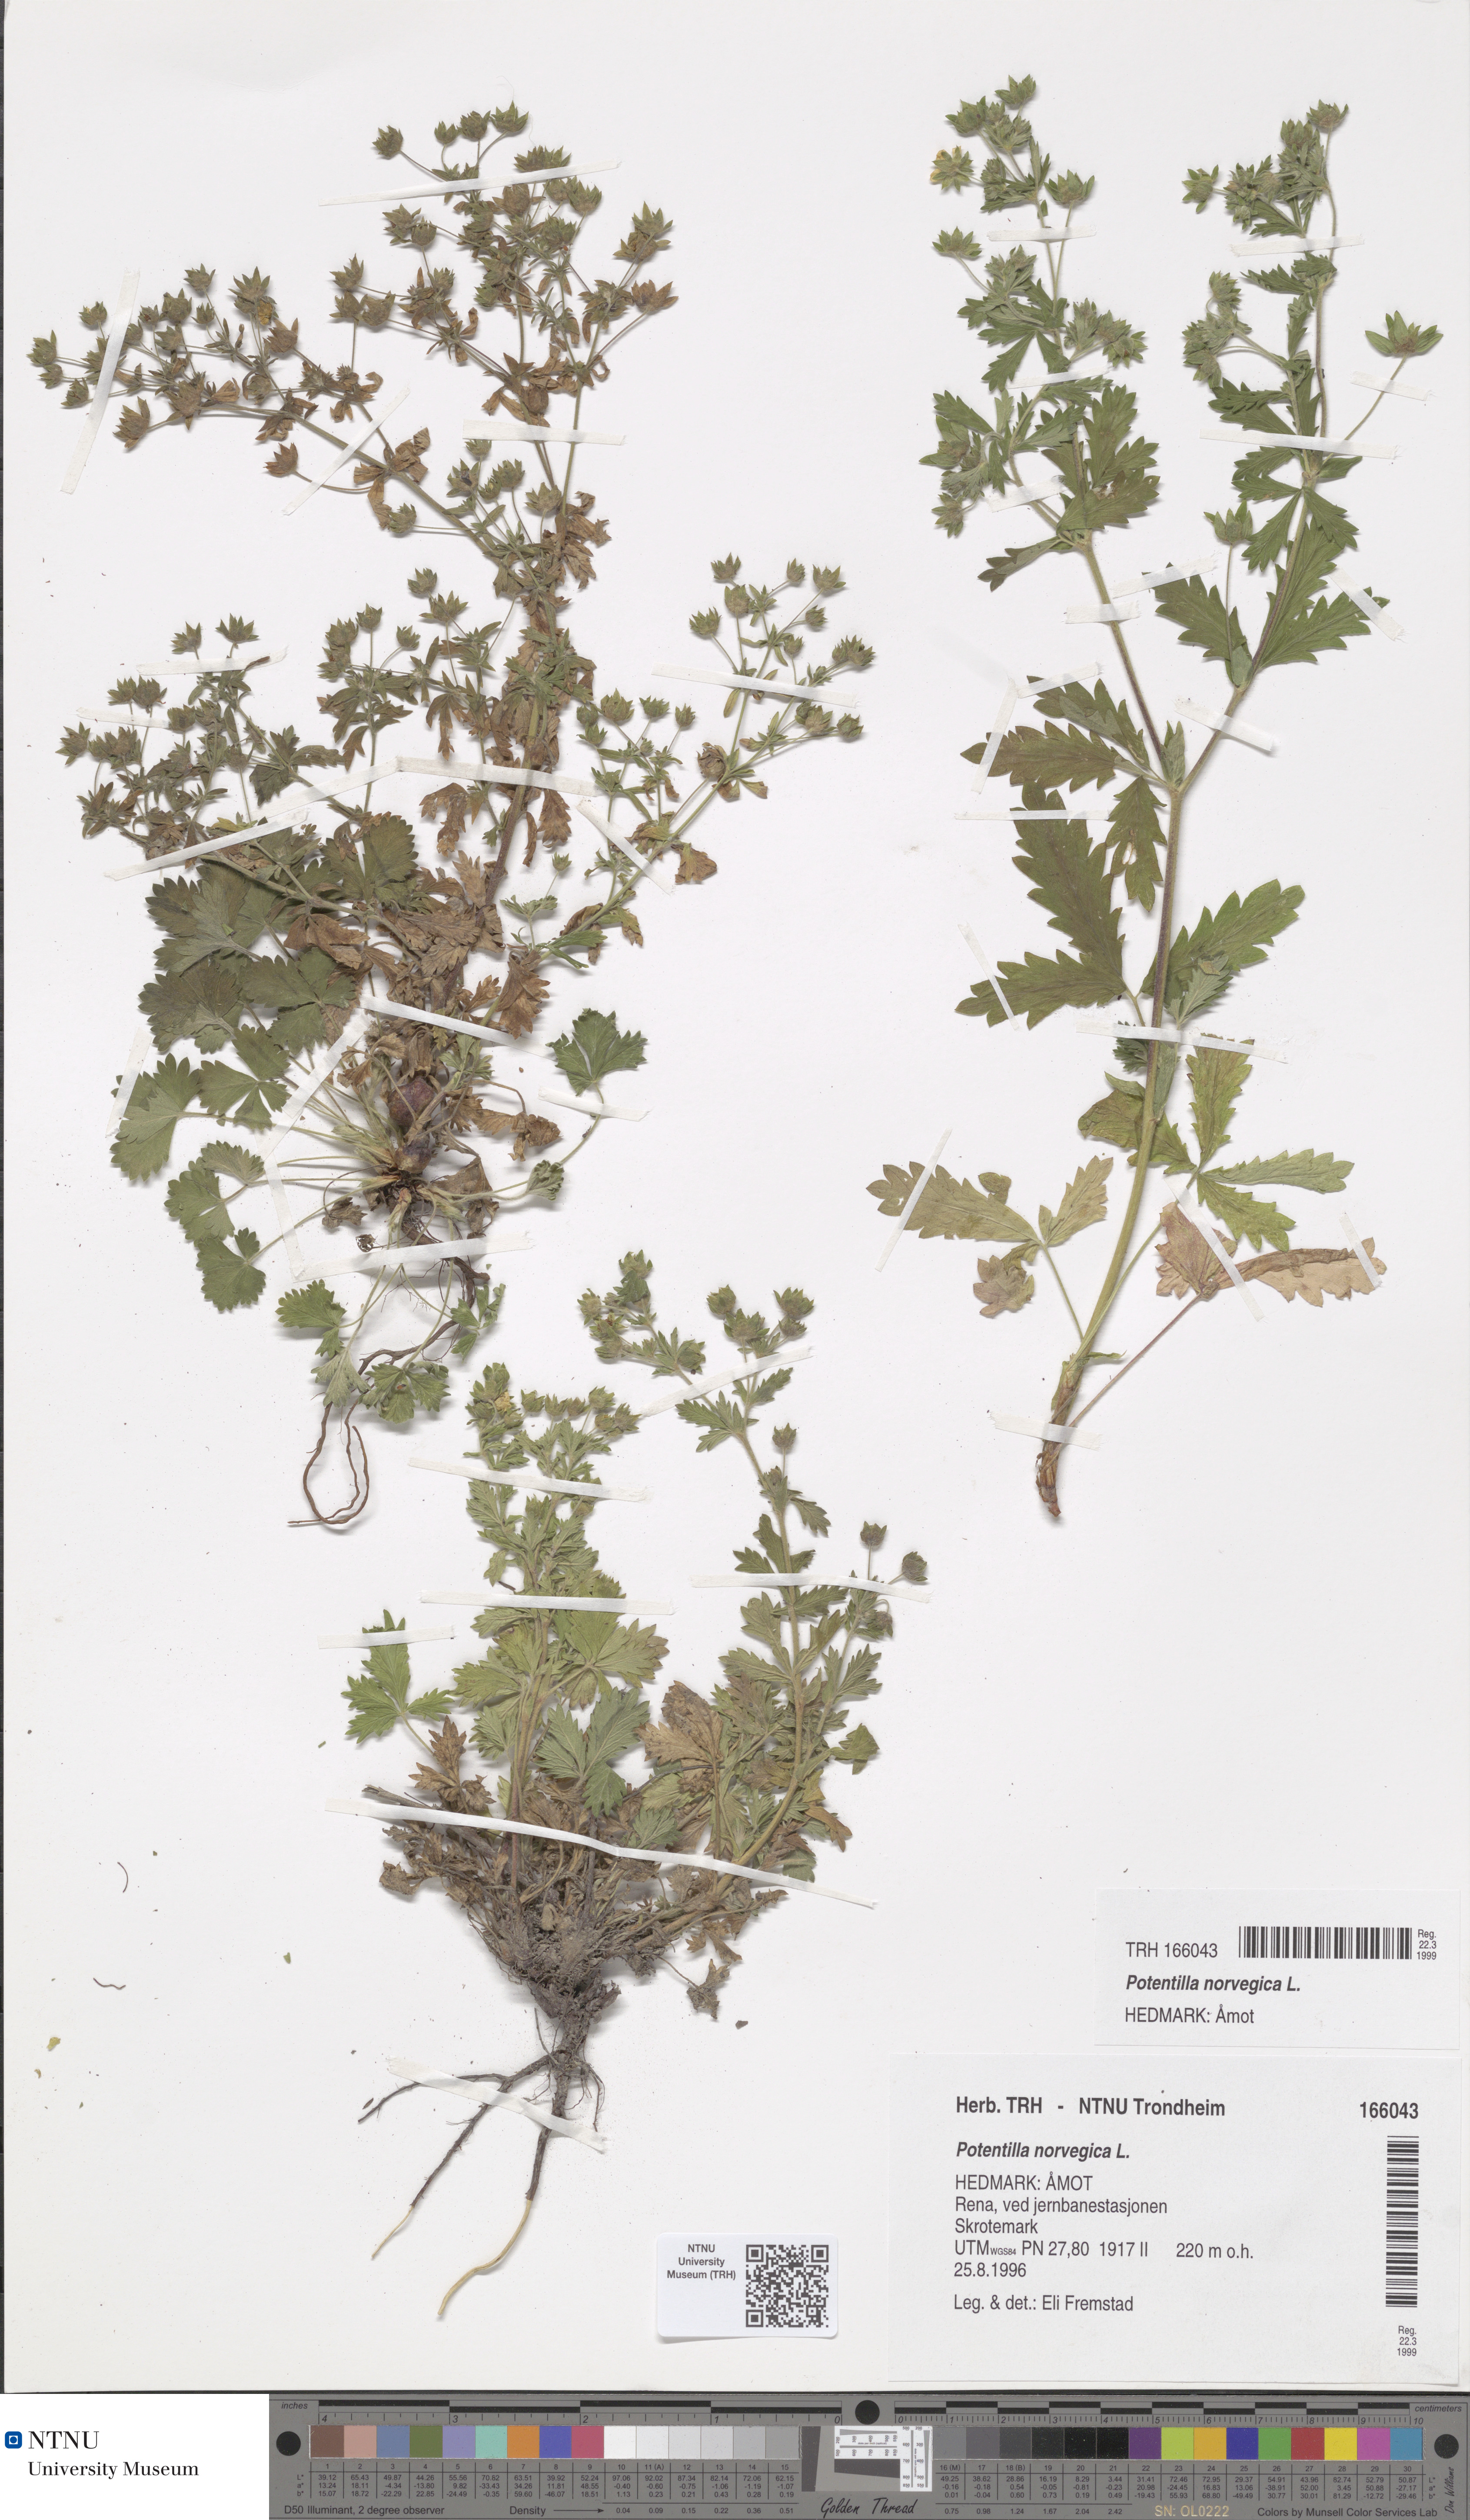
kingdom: Plantae
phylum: Tracheophyta
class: Magnoliopsida
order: Rosales
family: Rosaceae
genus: Potentilla
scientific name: Potentilla norvegica
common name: Ternate-leaved cinquefoil
